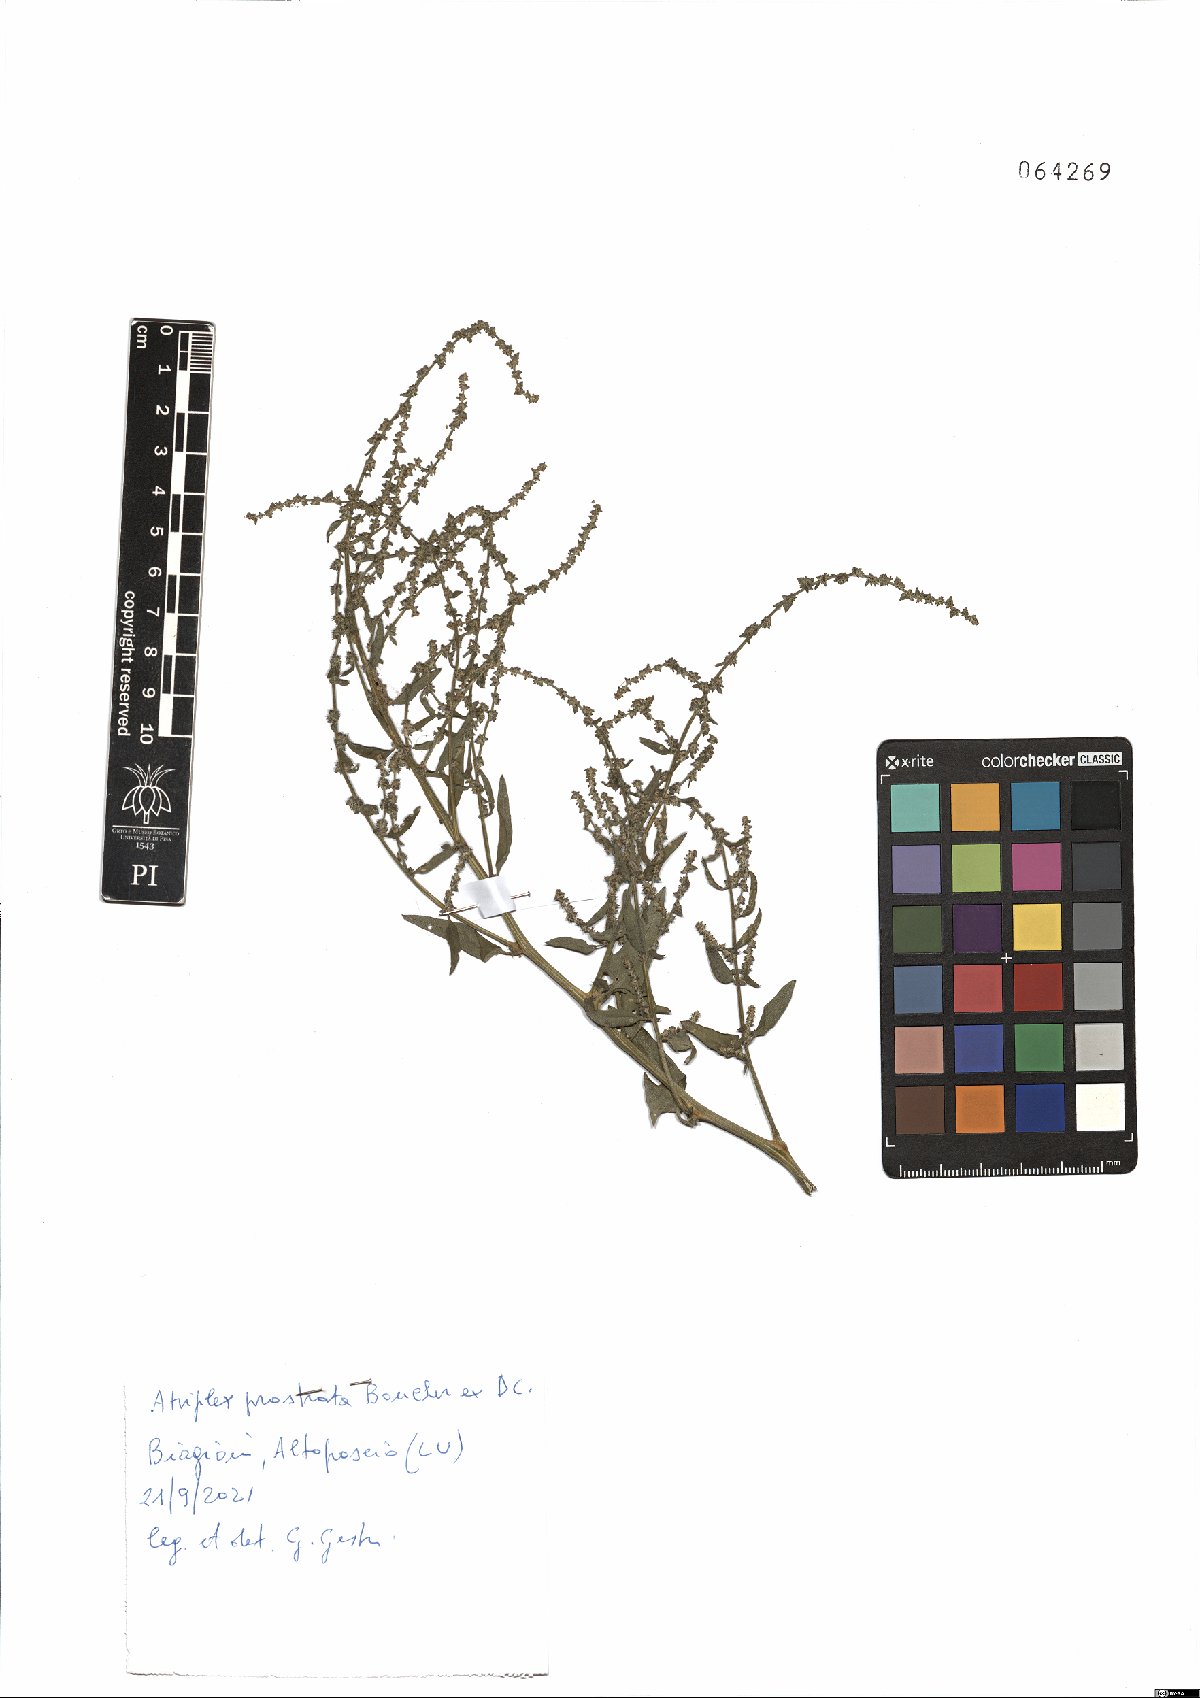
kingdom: Plantae
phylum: Tracheophyta
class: Magnoliopsida
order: Caryophyllales
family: Amaranthaceae
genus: Atriplex
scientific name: Atriplex prostrata
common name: Spear-leaved orache
